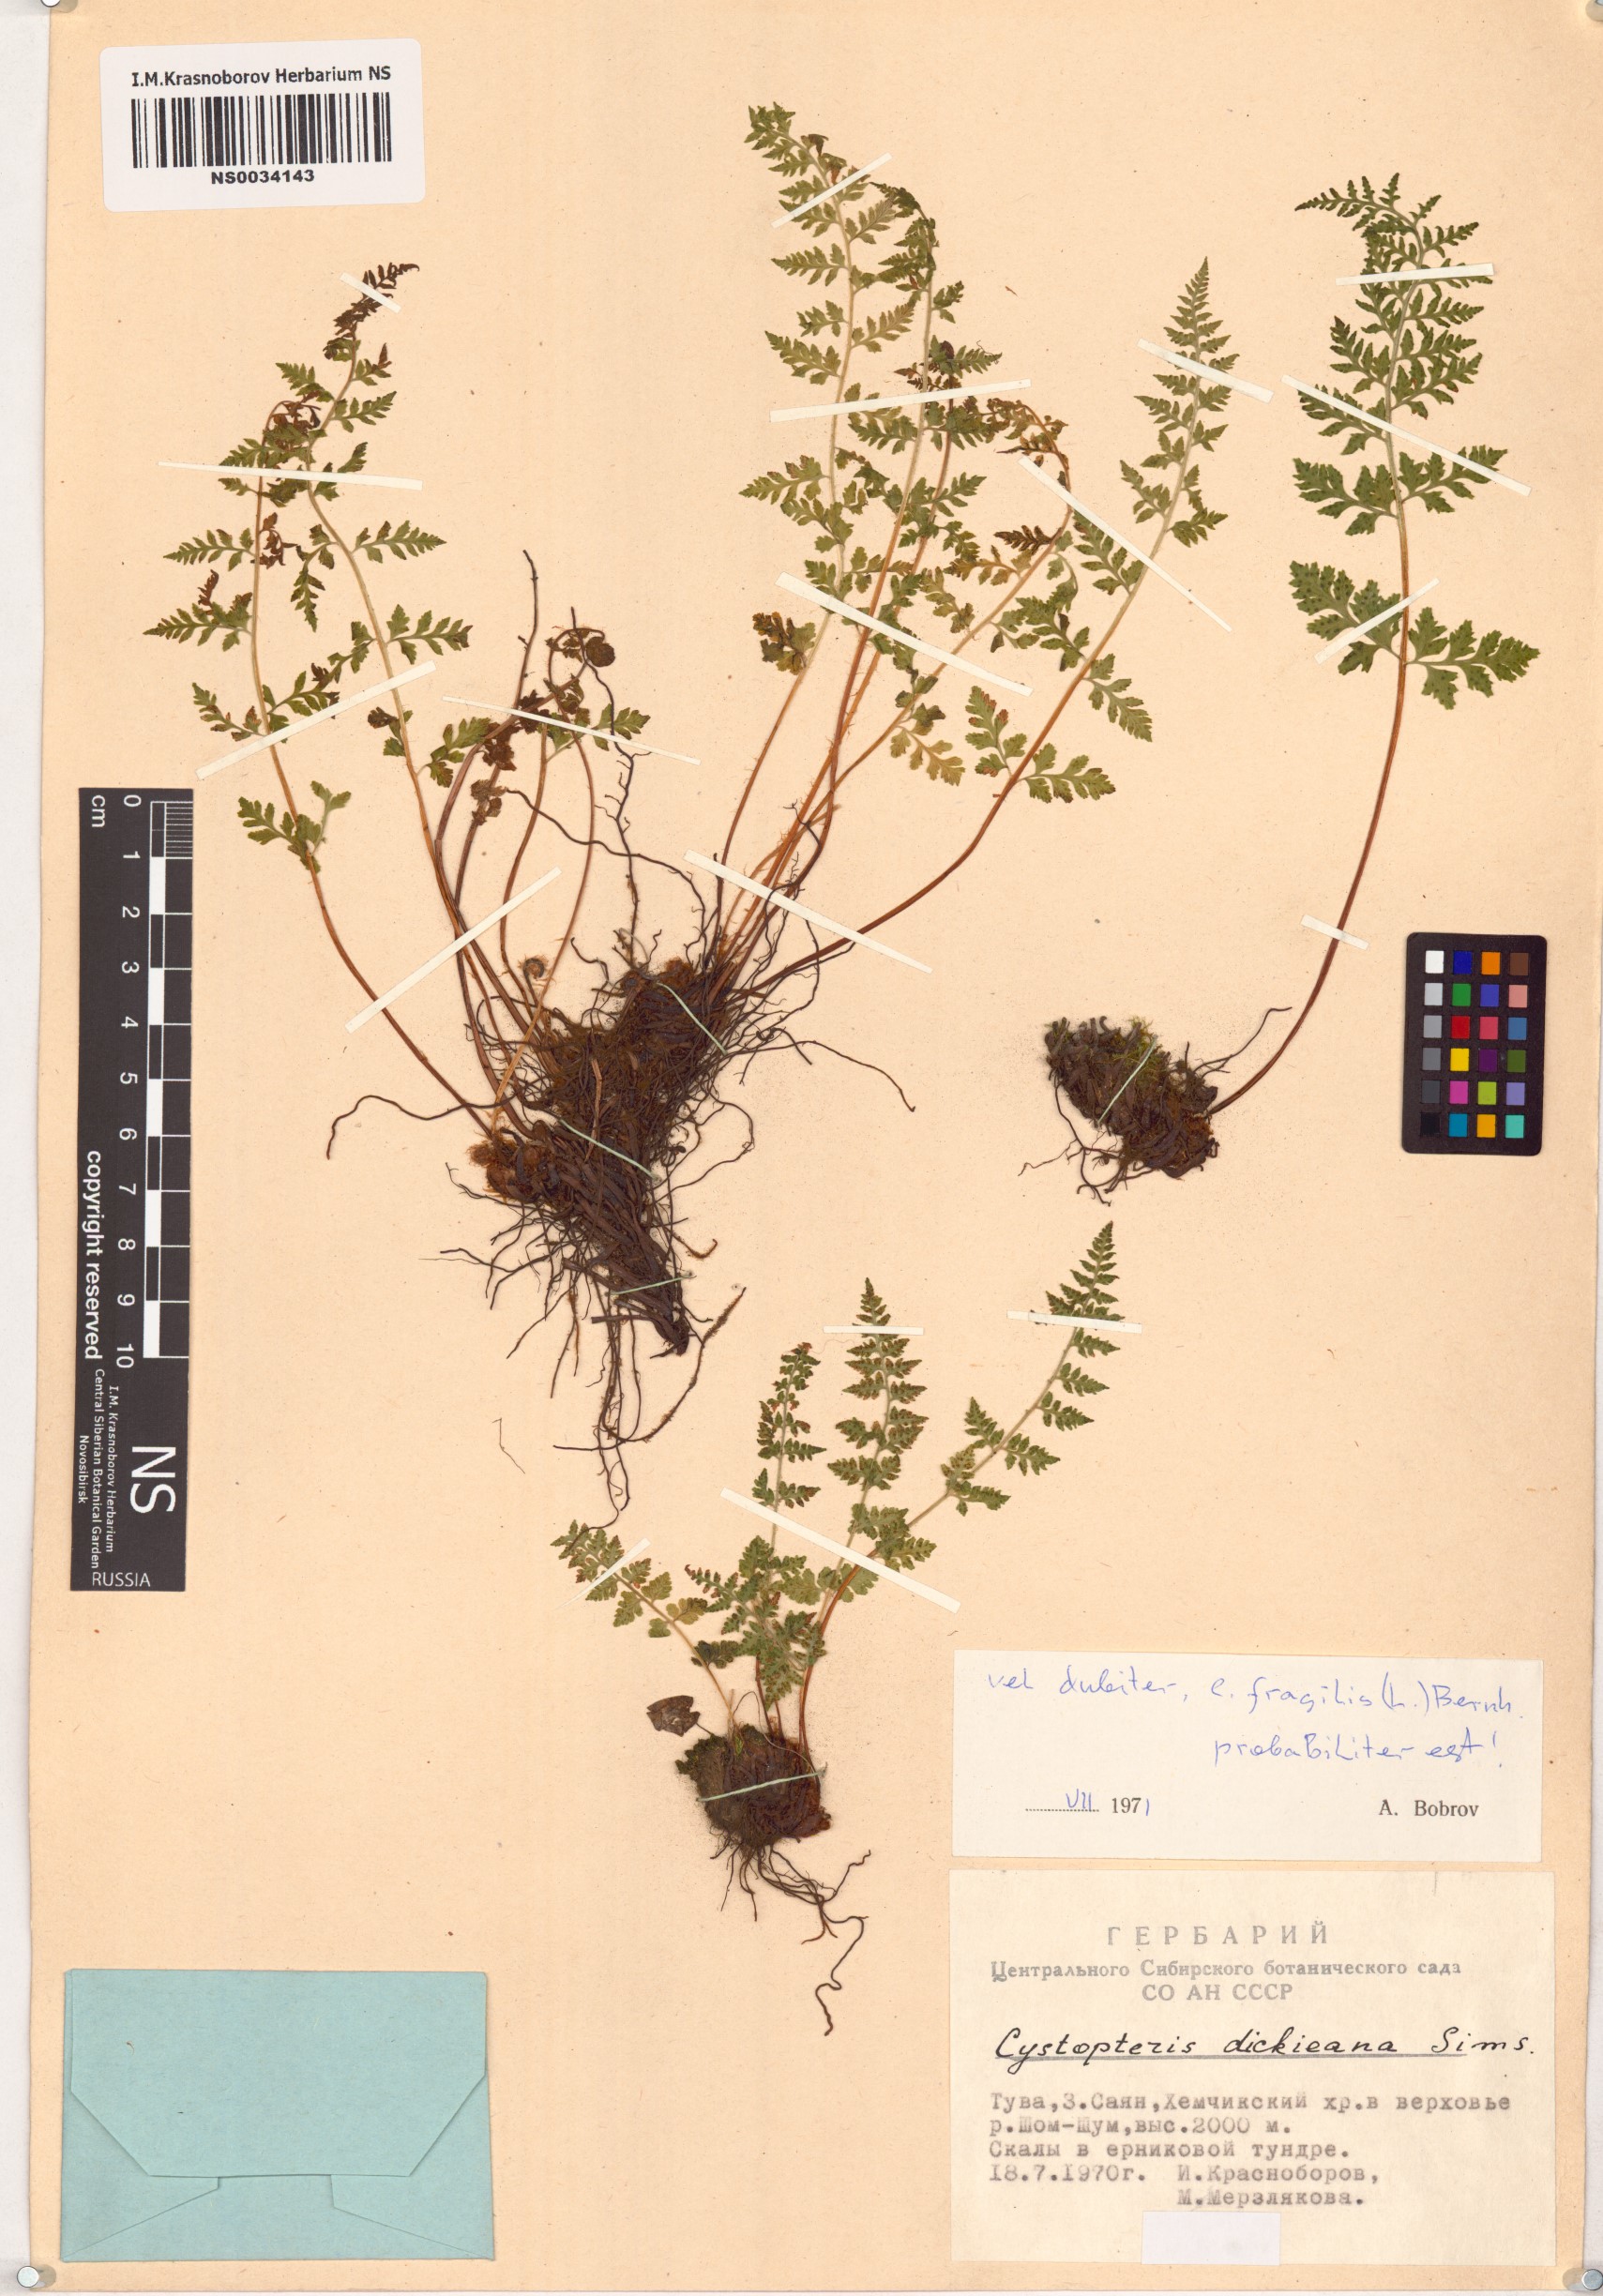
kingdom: Plantae
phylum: Tracheophyta
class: Polypodiopsida
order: Polypodiales
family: Cystopteridaceae
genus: Cystopteris
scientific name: Cystopteris fragilis
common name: Brittle bladder fern
